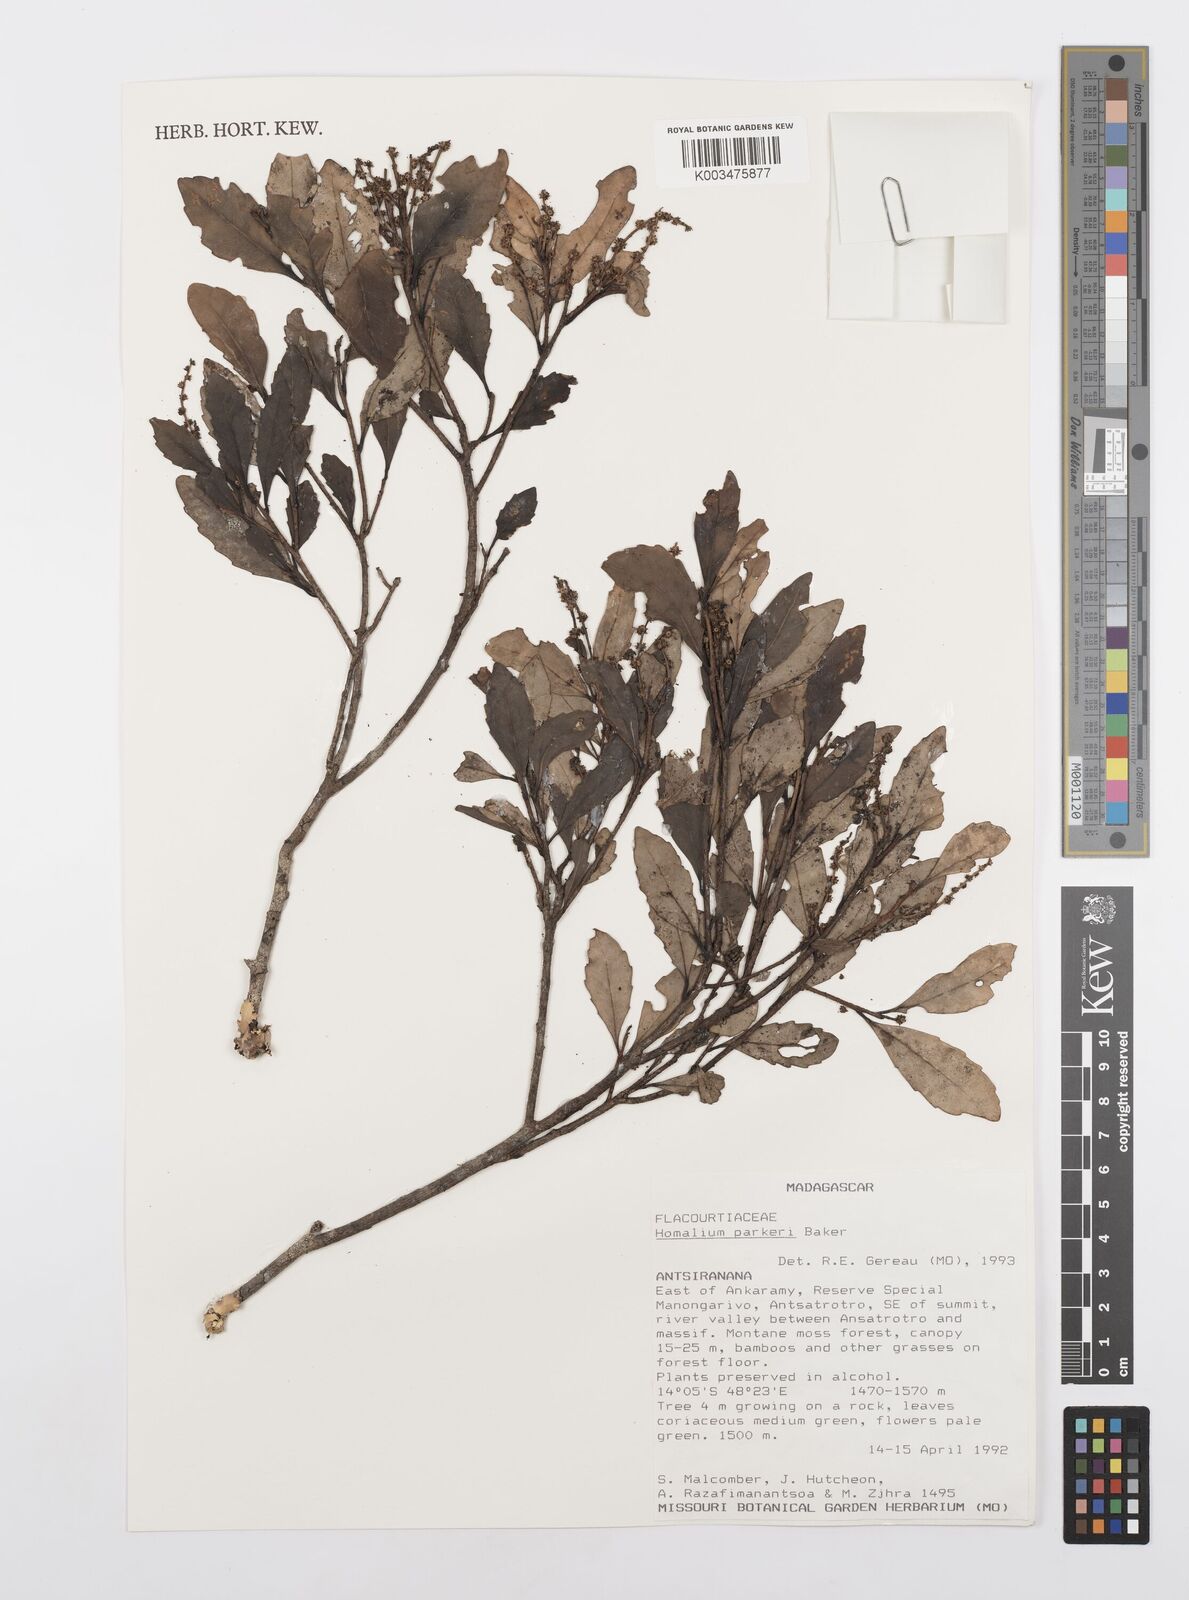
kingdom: Plantae
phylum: Tracheophyta
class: Magnoliopsida
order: Malpighiales
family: Salicaceae
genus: Homalium
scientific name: Homalium parkeri
